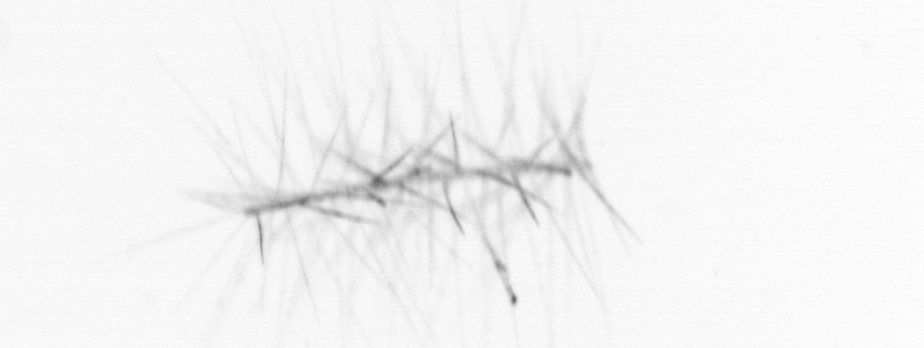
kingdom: Chromista
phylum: Ochrophyta
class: Bacillariophyceae
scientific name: Bacillariophyceae
